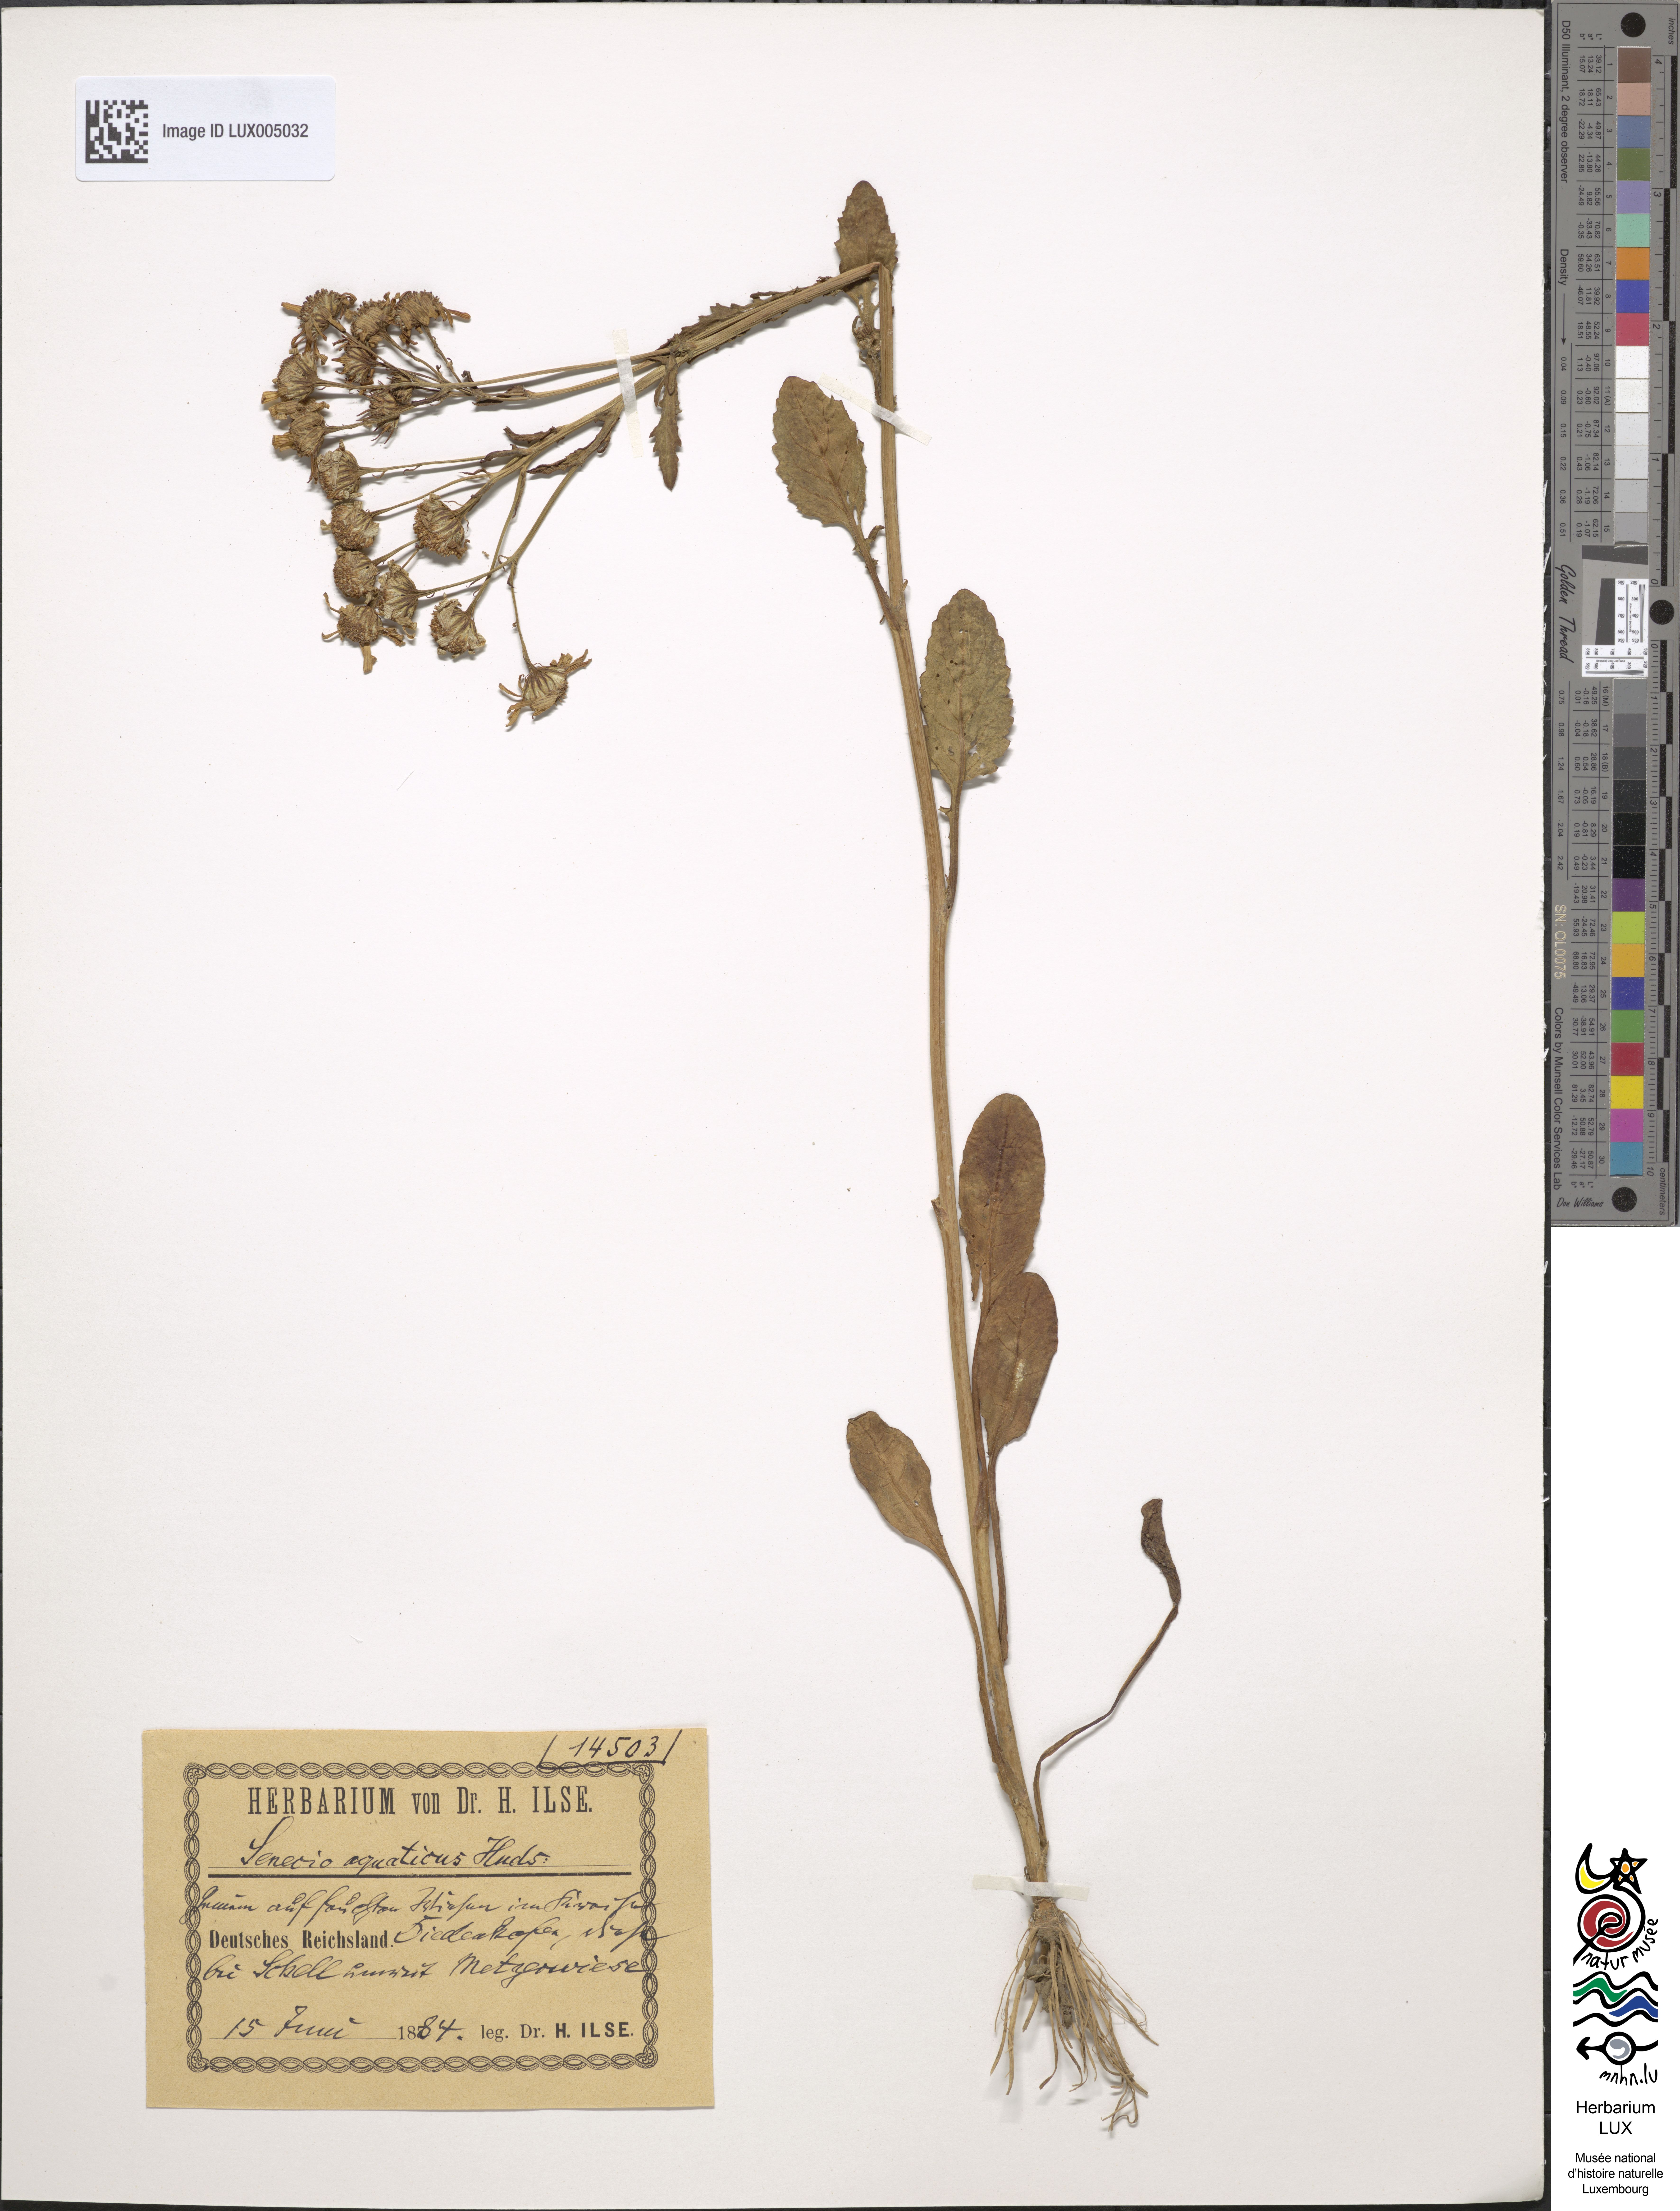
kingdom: Plantae
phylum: Tracheophyta
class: Magnoliopsida
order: Asterales
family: Asteraceae
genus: Jacobaea
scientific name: Jacobaea aquatica
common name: Water ragwort
